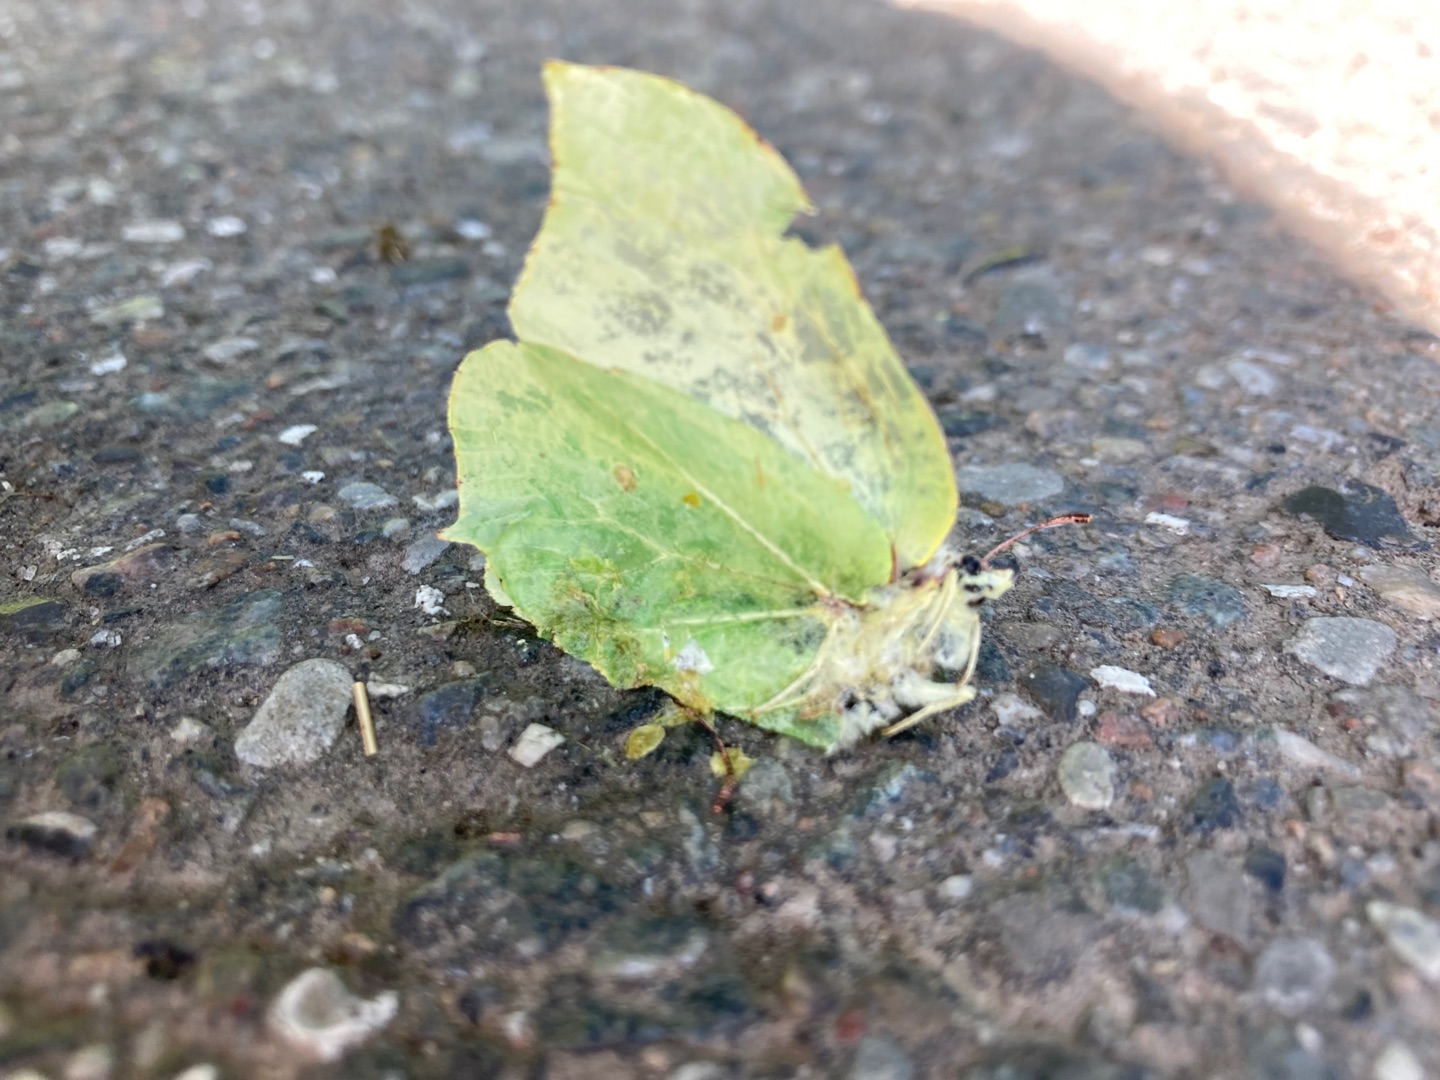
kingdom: Animalia
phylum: Arthropoda
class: Insecta
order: Lepidoptera
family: Pieridae
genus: Gonepteryx
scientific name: Gonepteryx rhamni
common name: Citronsommerfugl
